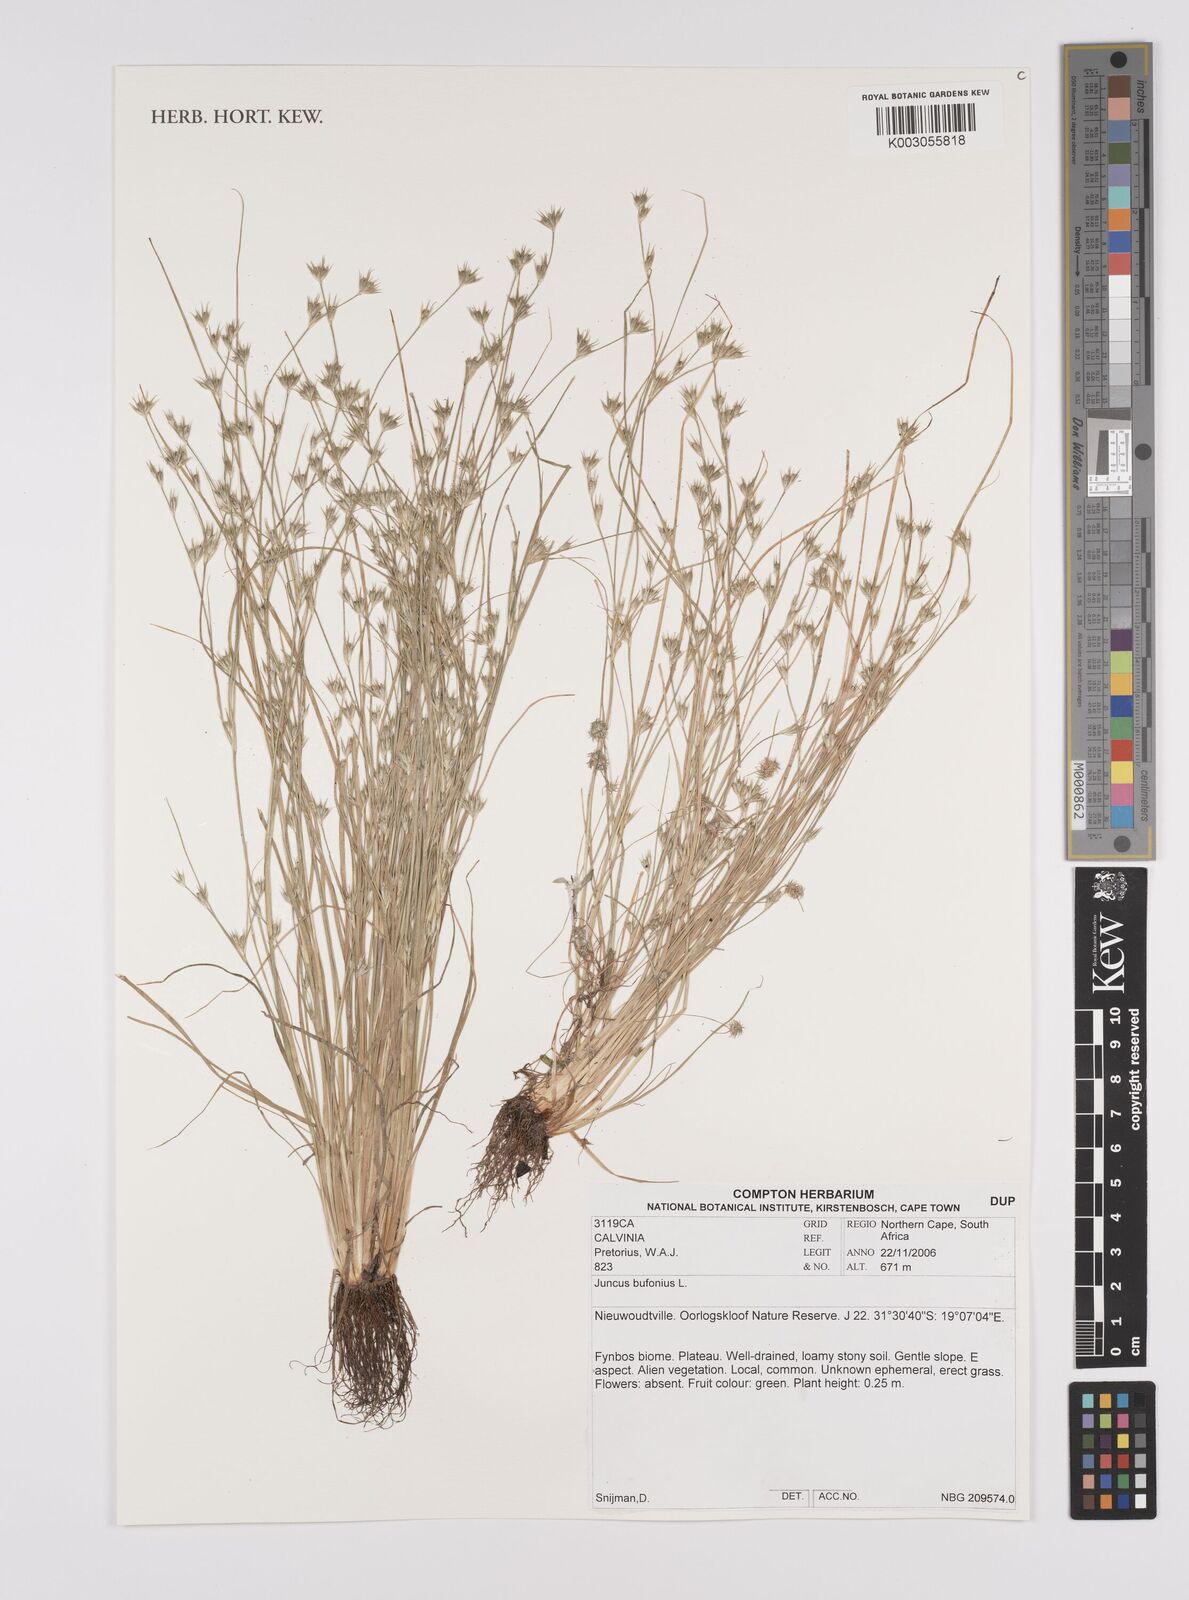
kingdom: Plantae
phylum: Tracheophyta
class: Liliopsida
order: Poales
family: Juncaceae
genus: Juncus
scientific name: Juncus bufonius
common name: Toad rush
